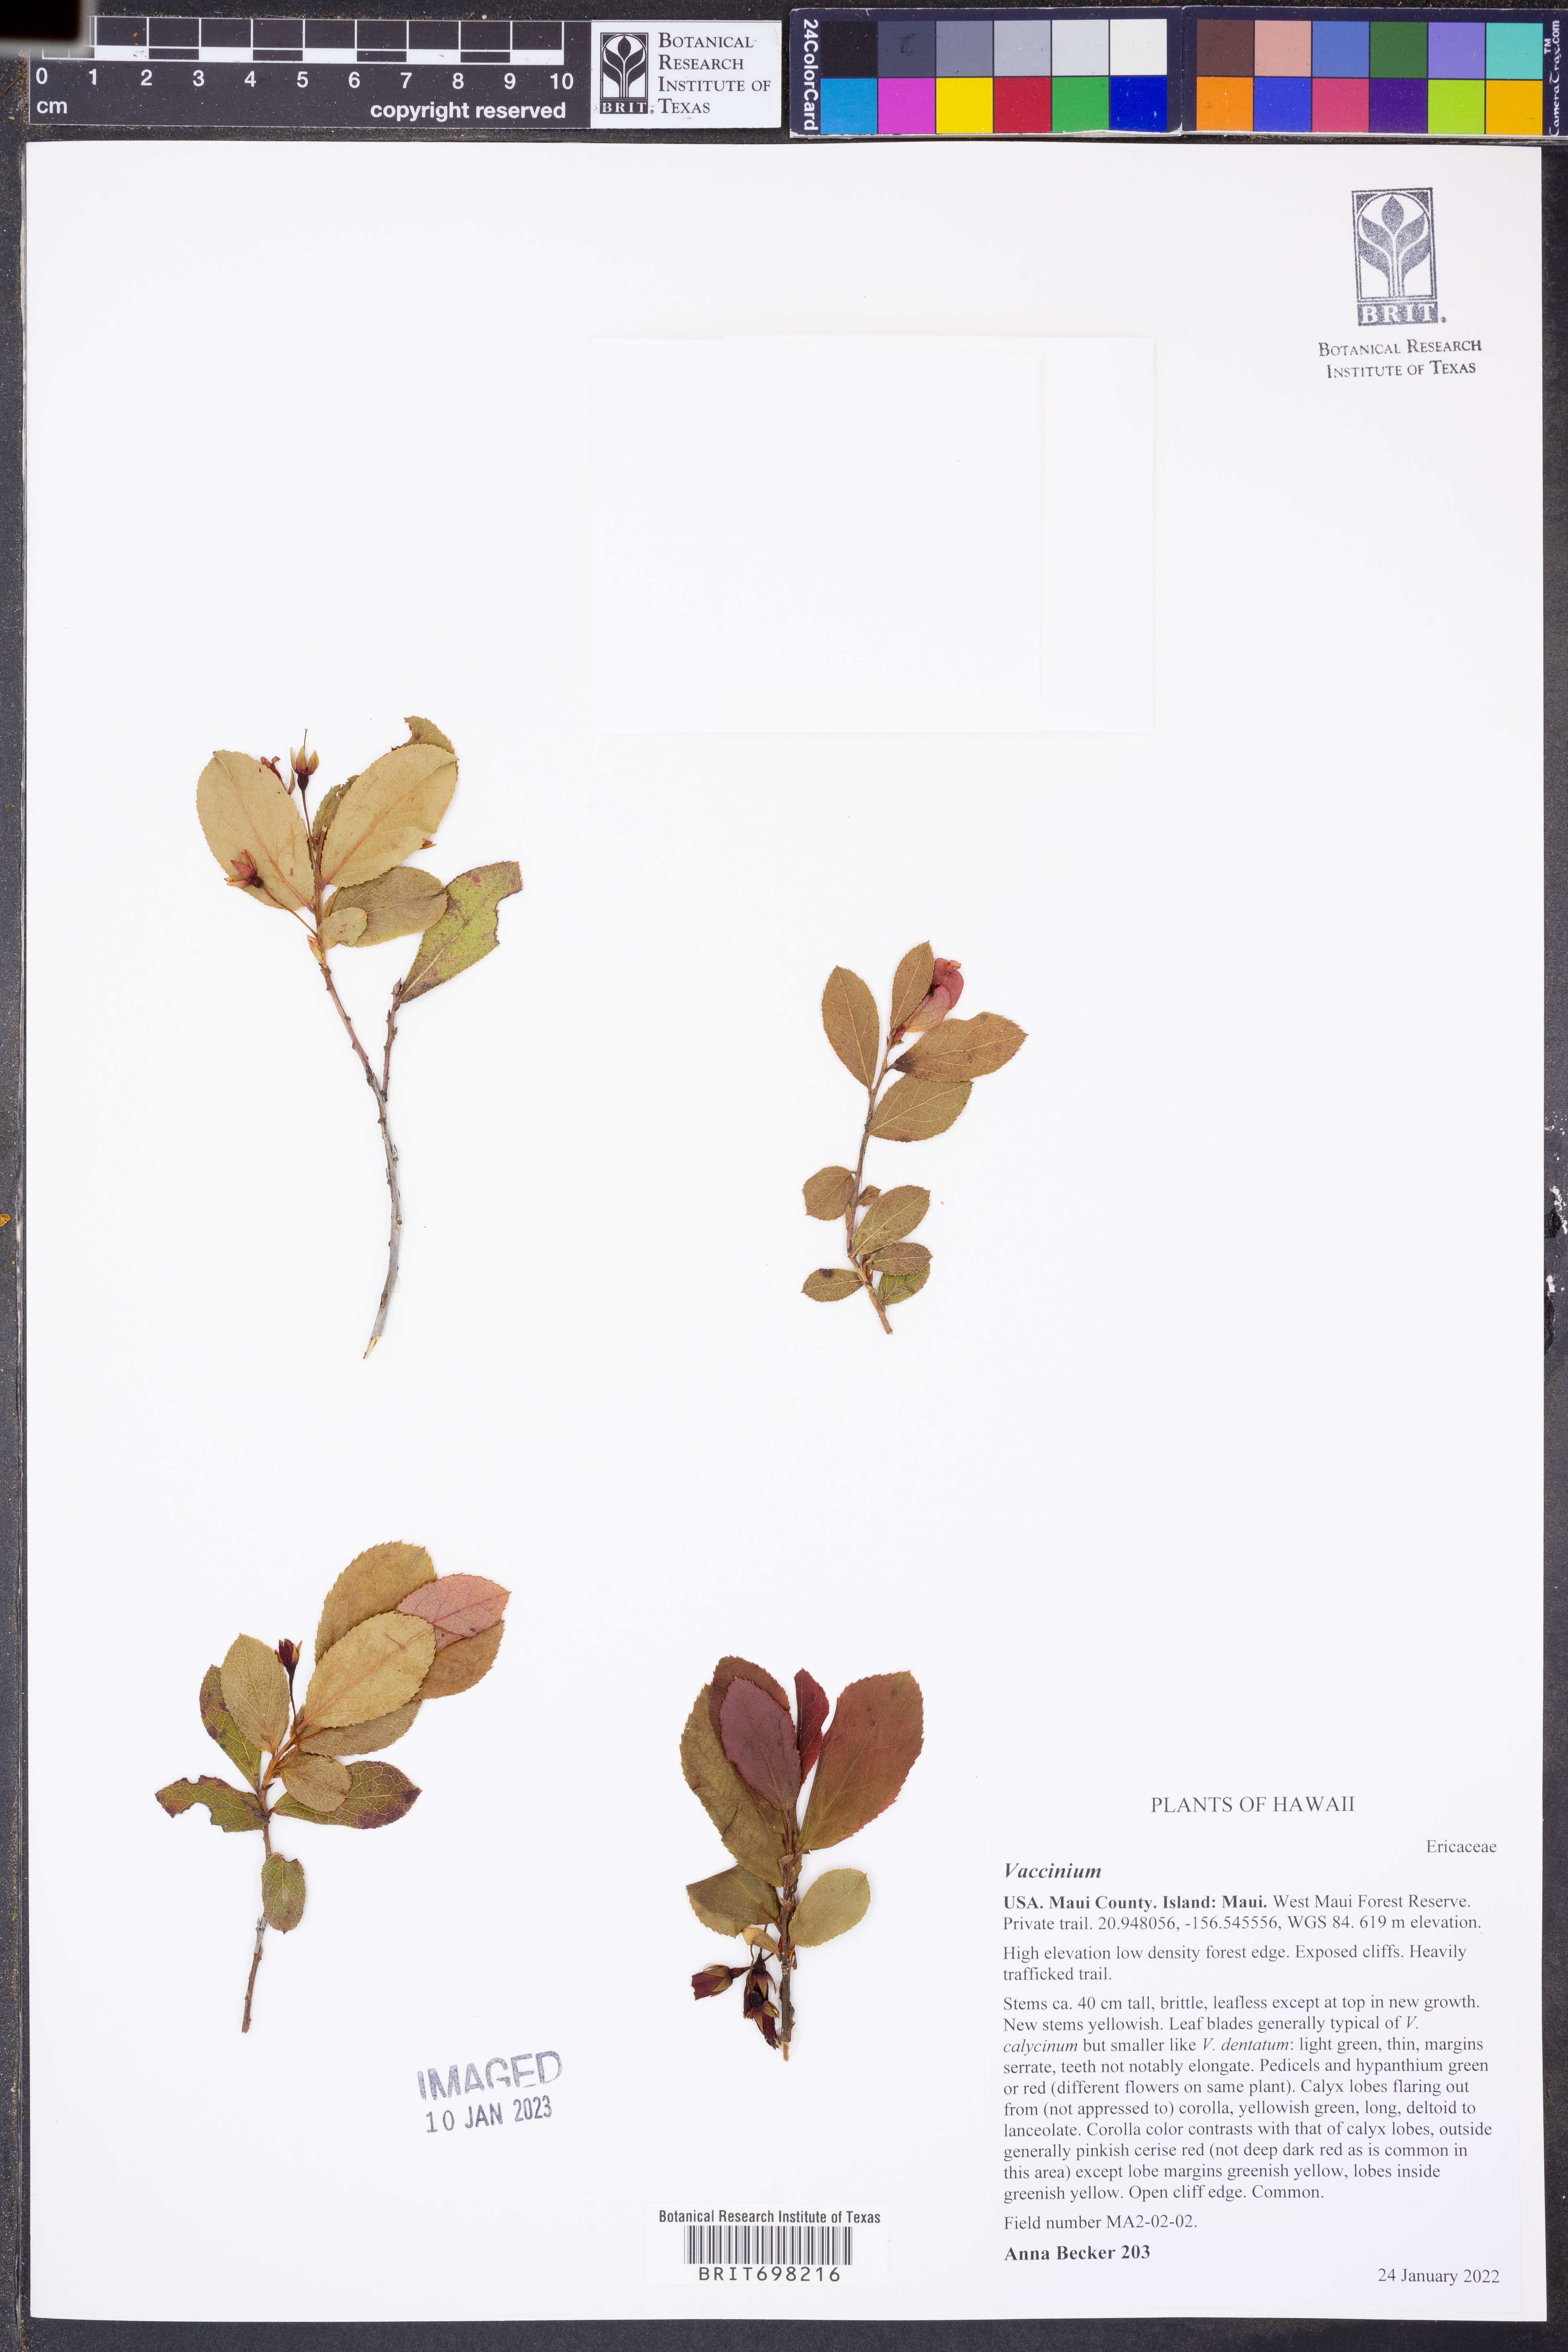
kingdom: Plantae
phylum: Tracheophyta
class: Magnoliopsida
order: Ericales
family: Ericaceae
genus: Vaccinium
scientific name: Vaccinium
